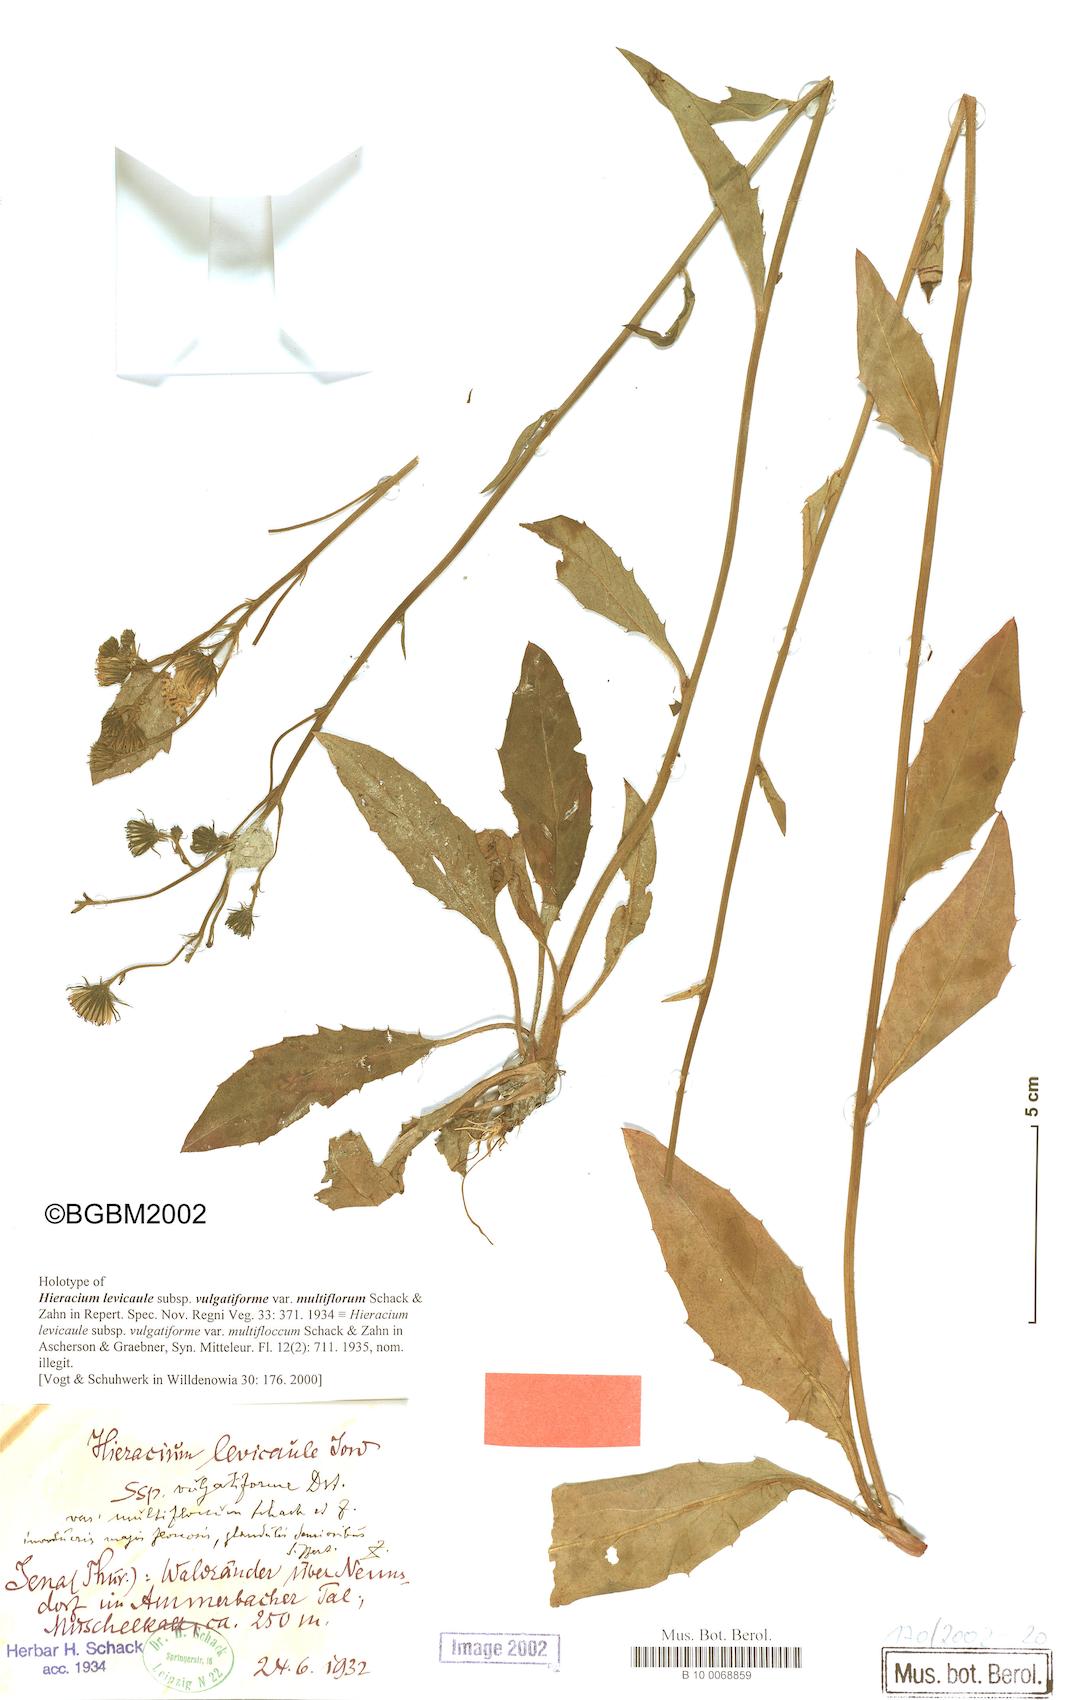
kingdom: Plantae
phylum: Tracheophyta
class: Magnoliopsida
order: Asterales
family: Asteraceae
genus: Hieracium
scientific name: Hieracium levicaule
